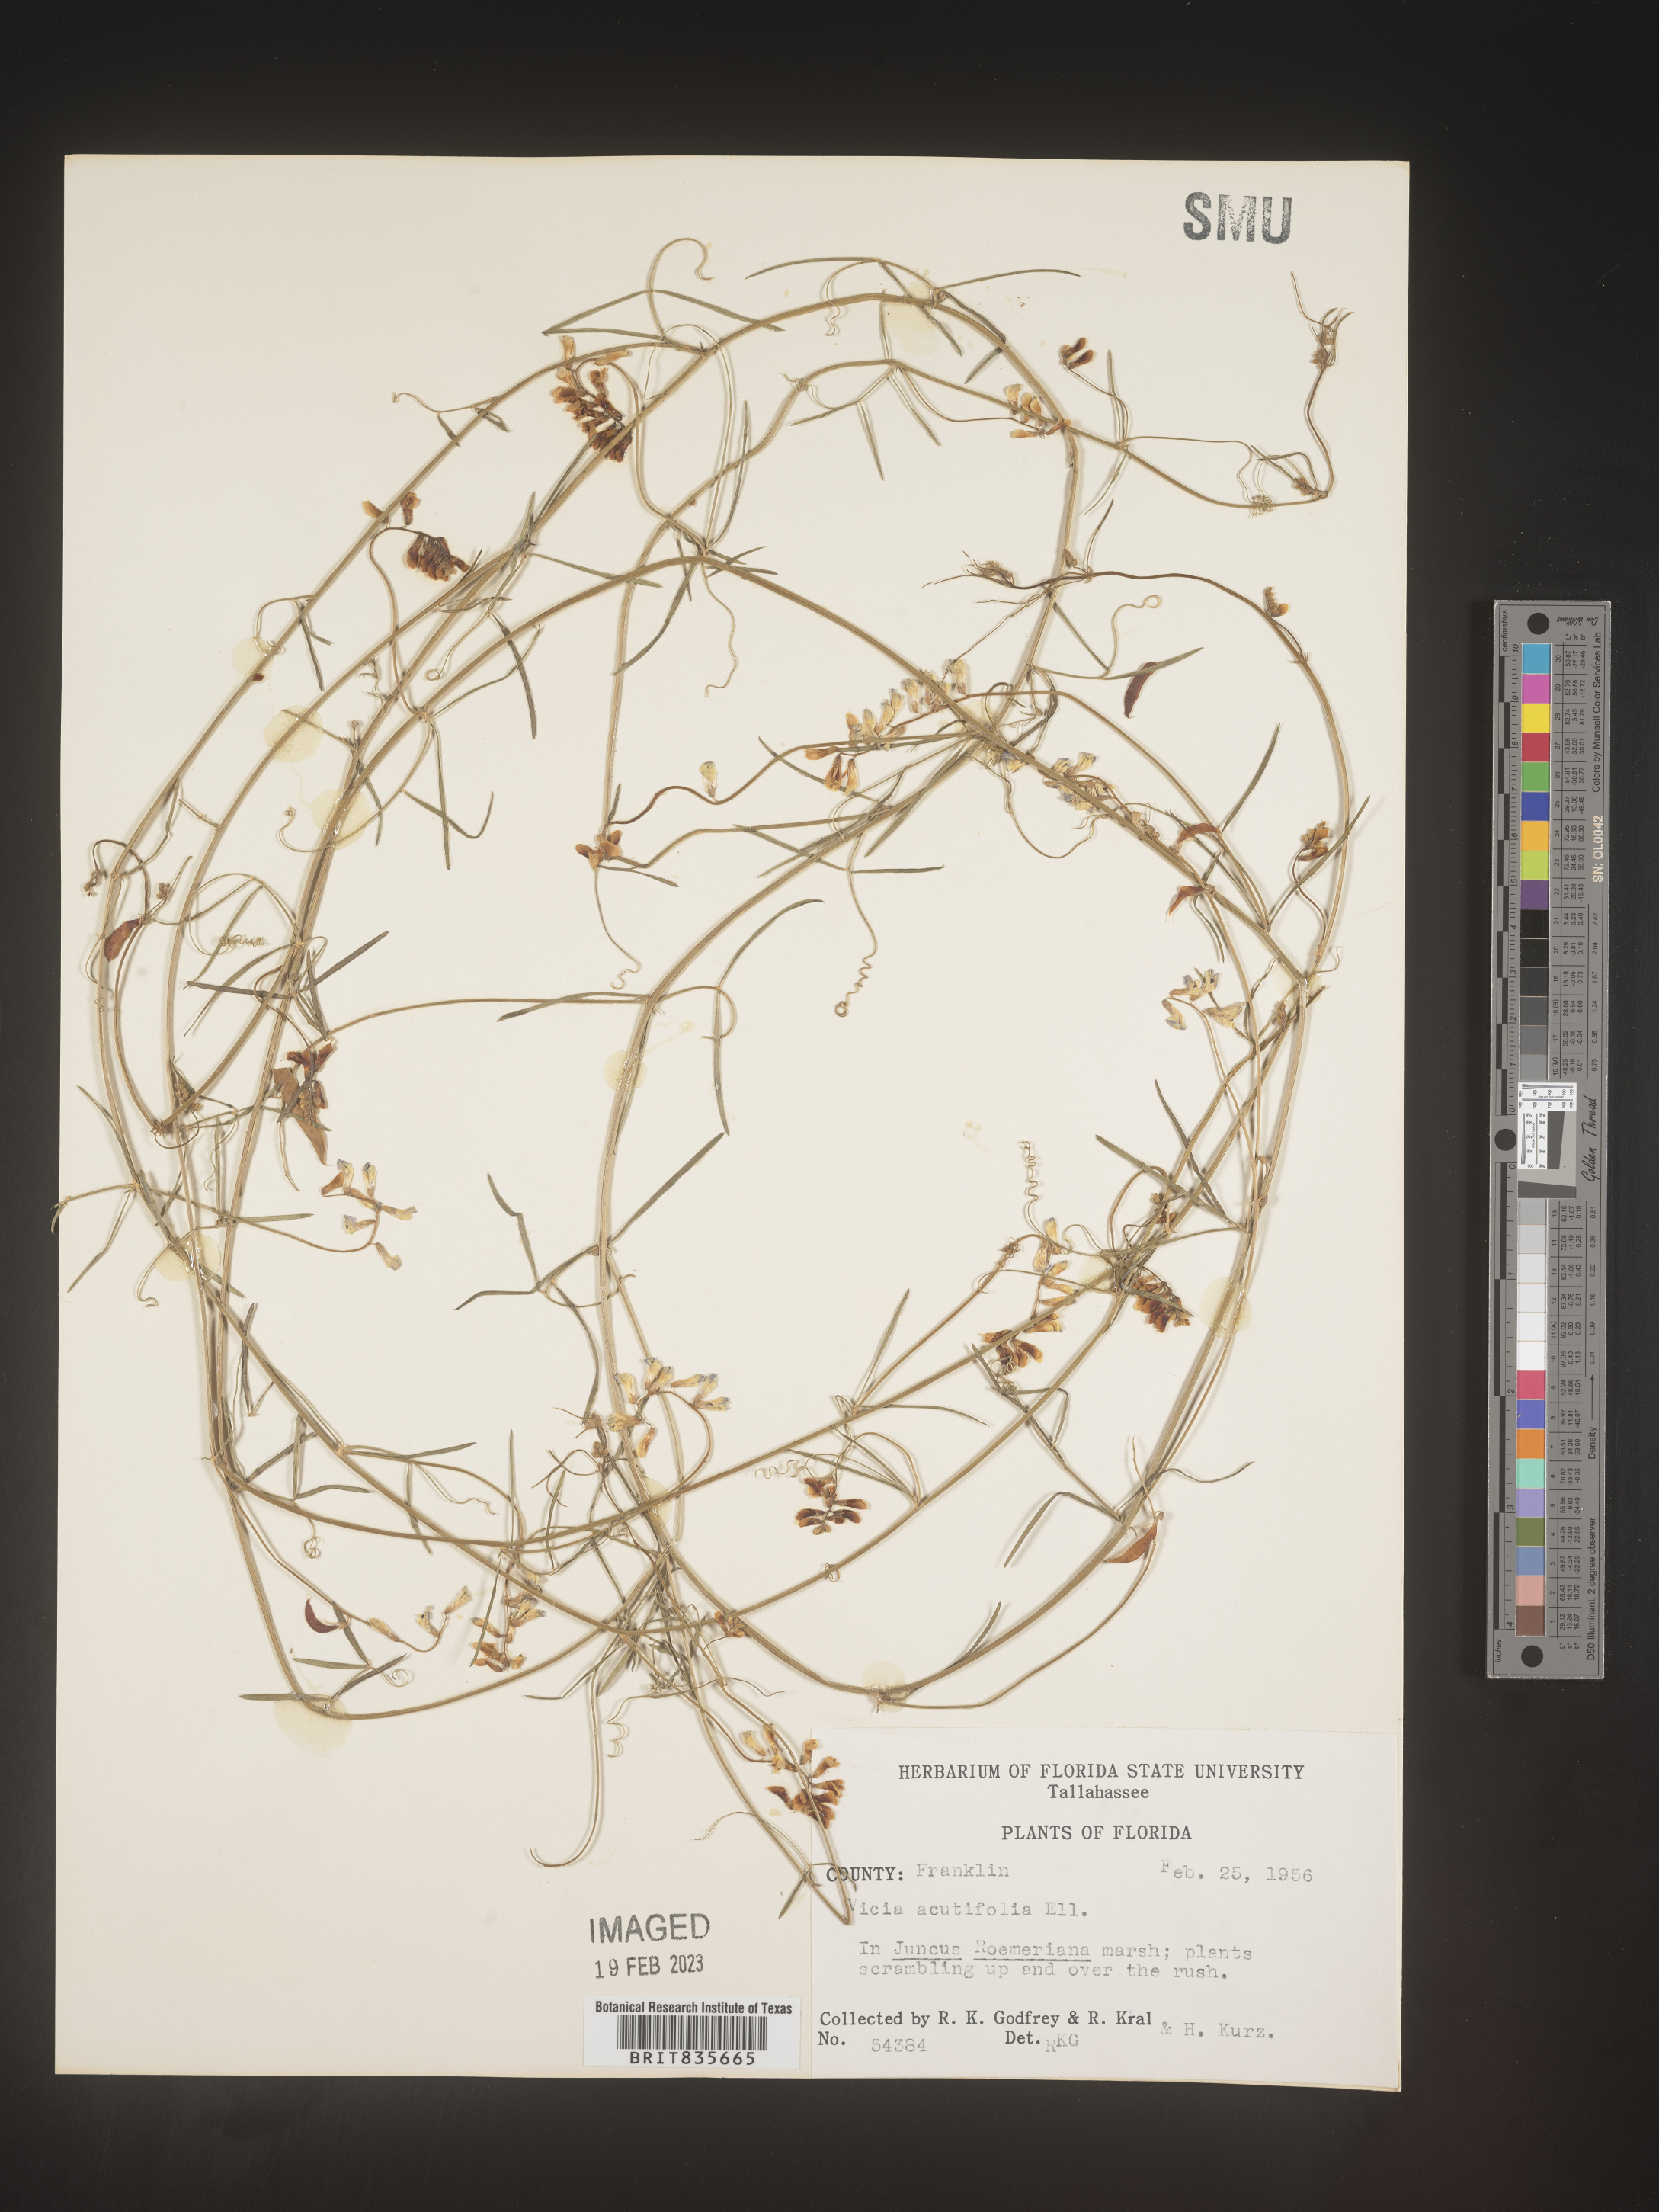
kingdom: Plantae
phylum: Tracheophyta
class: Magnoliopsida
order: Fabales
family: Fabaceae
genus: Vicia
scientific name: Vicia acutifolia
